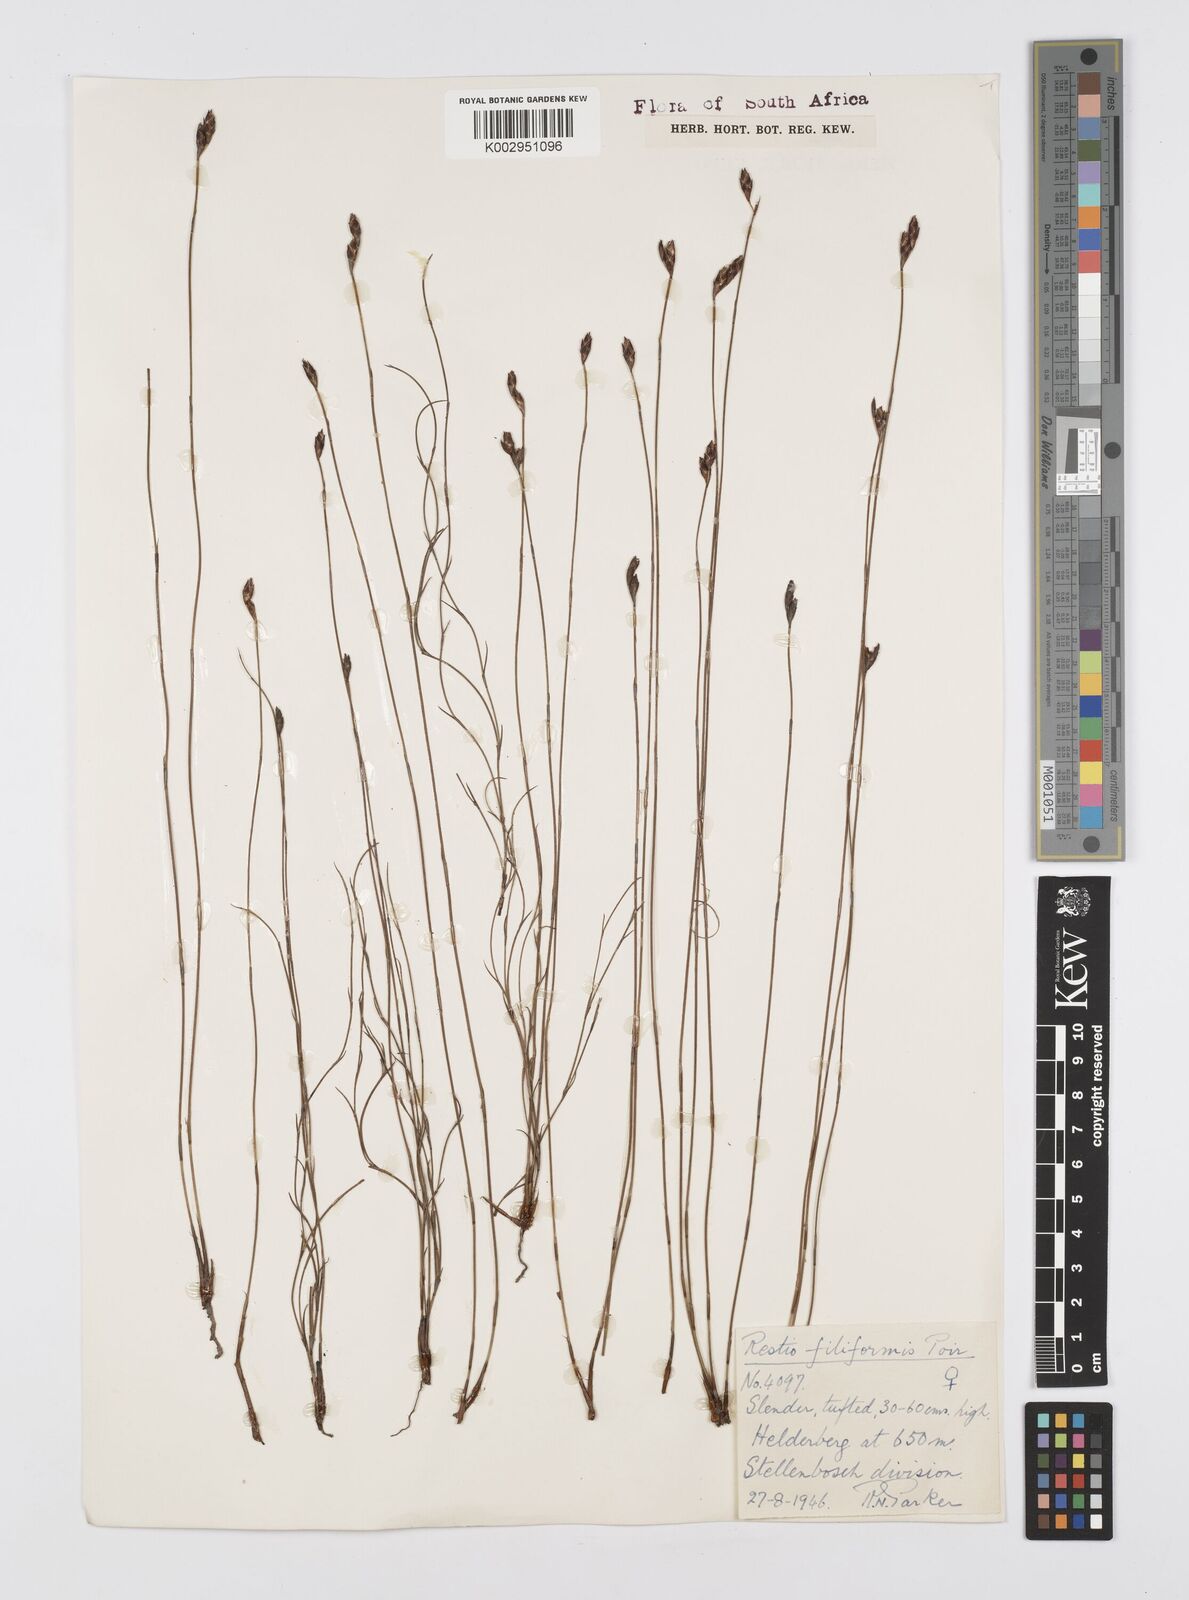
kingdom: Plantae
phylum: Tracheophyta
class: Liliopsida
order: Poales
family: Restionaceae
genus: Restio
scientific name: Restio filiformis
